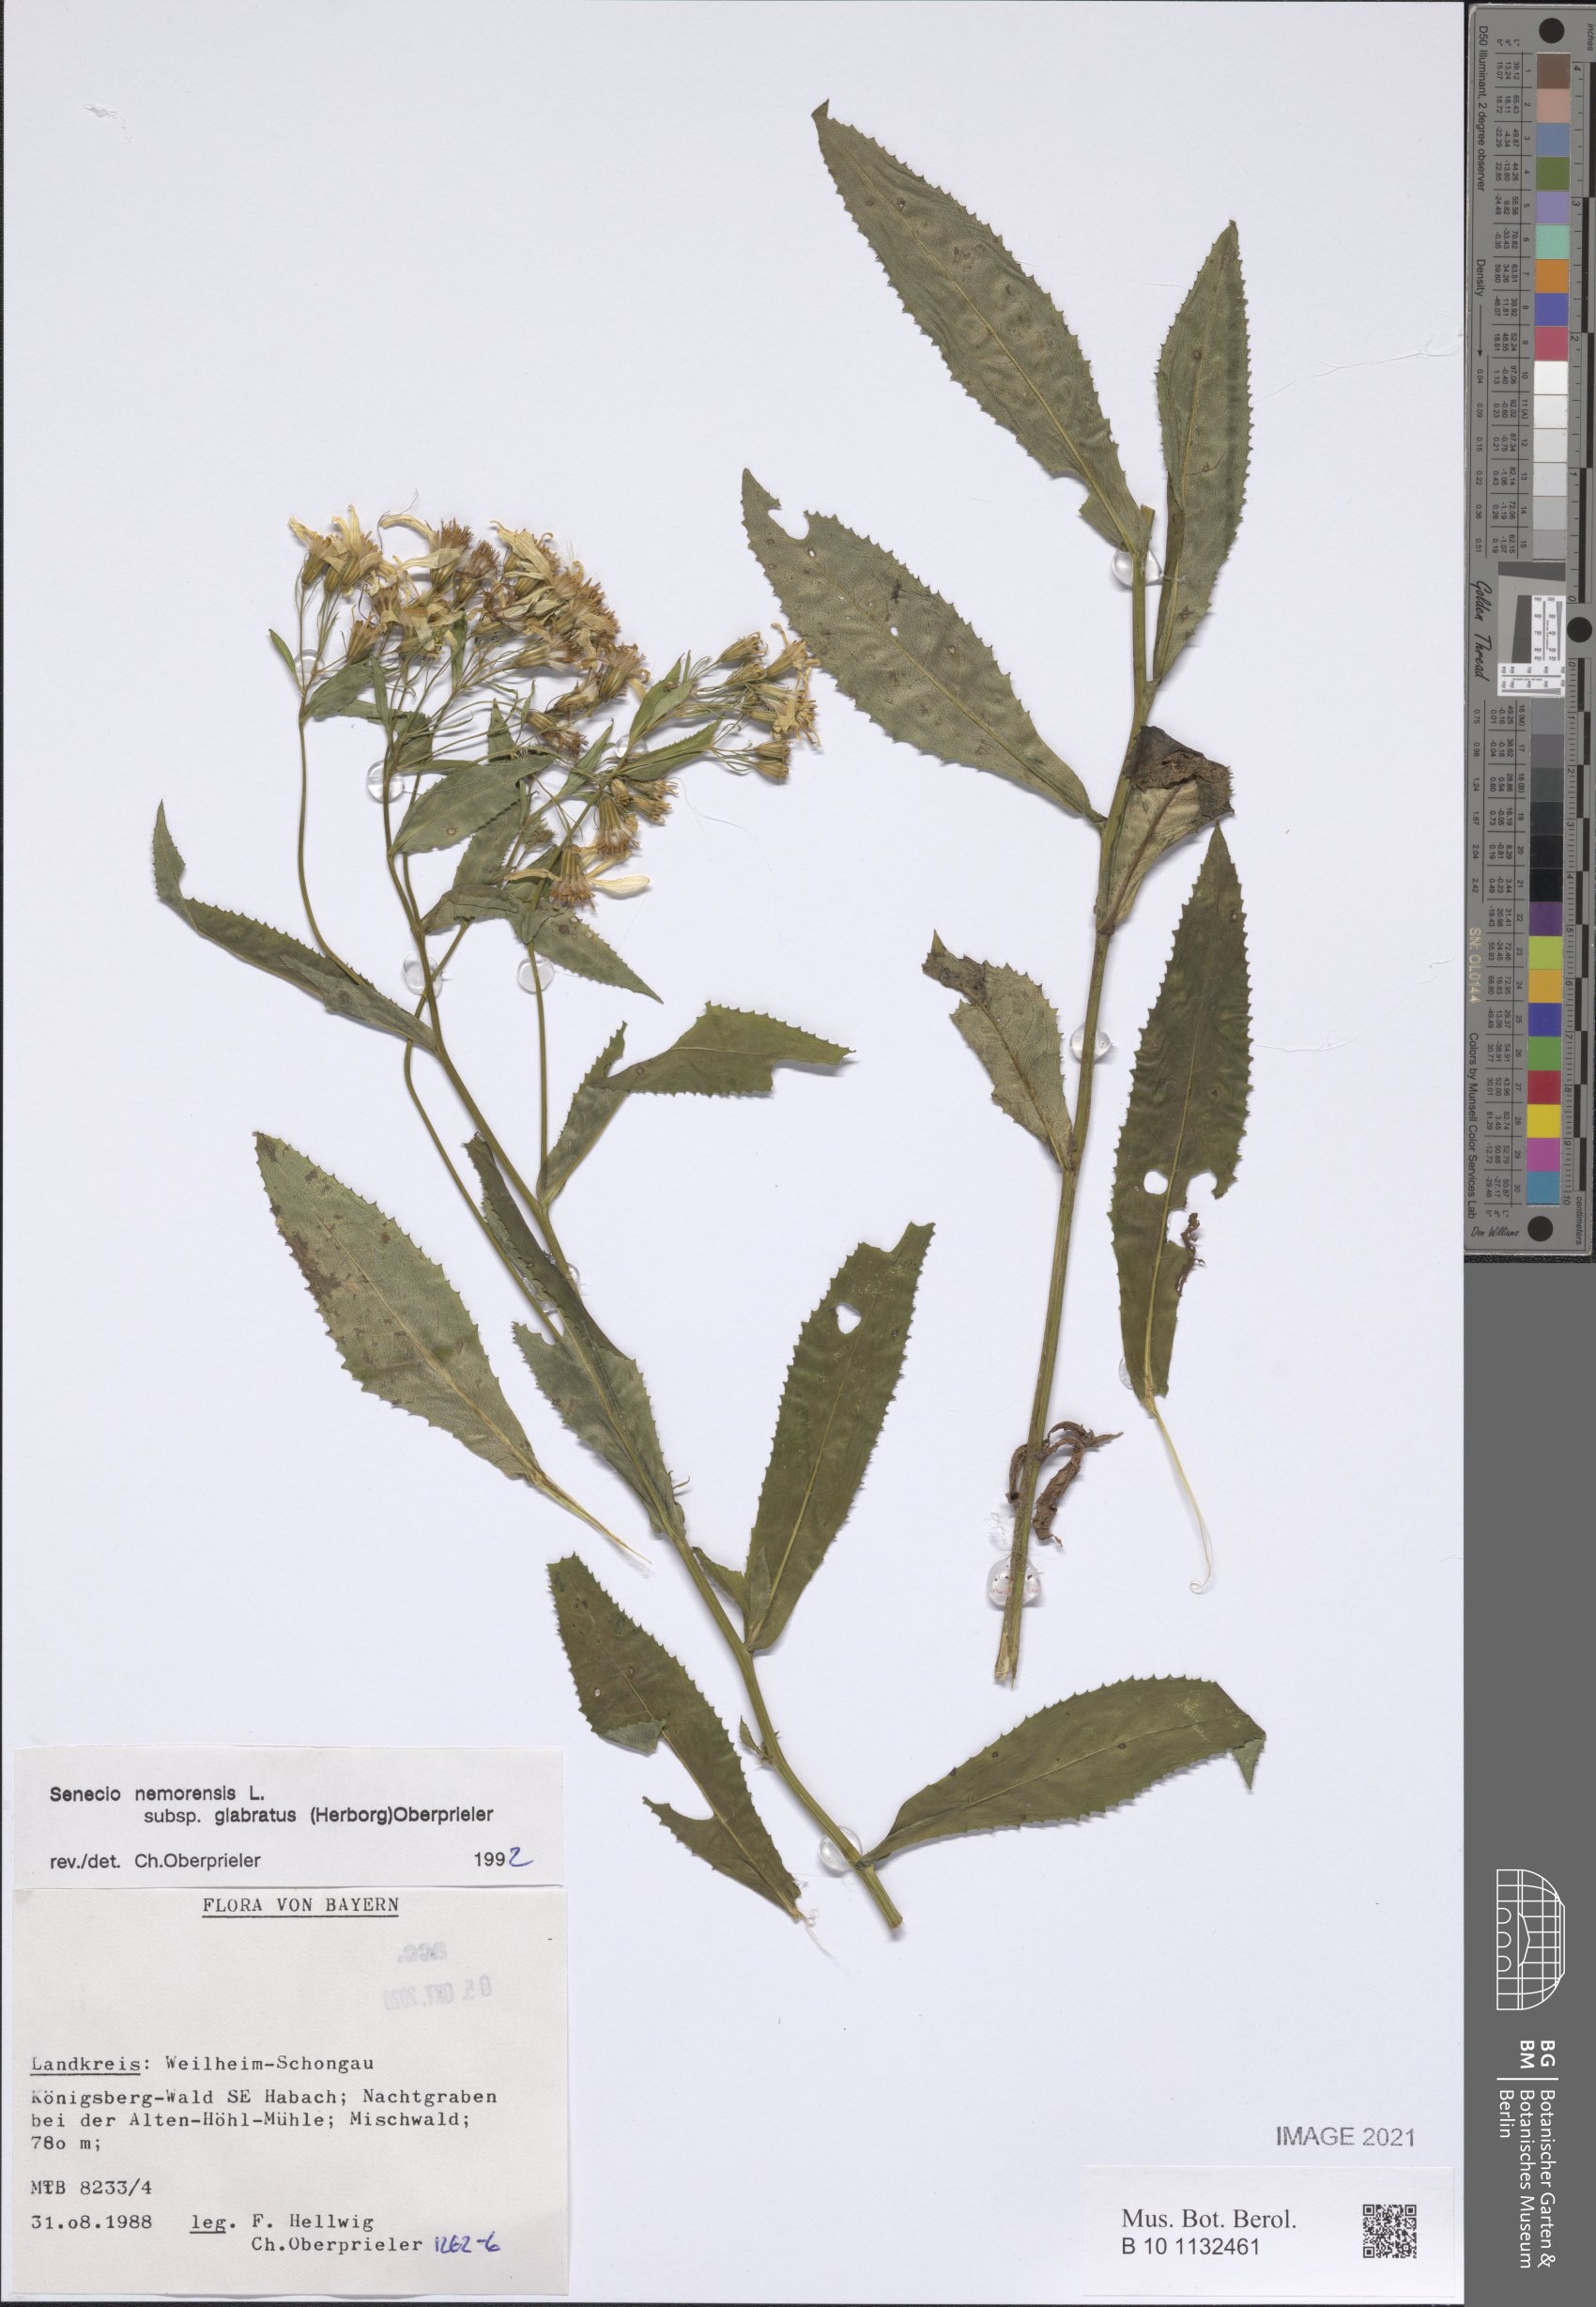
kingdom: Plantae
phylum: Tracheophyta
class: Magnoliopsida
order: Asterales
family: Asteraceae
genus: Senecio
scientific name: Senecio germanicus
